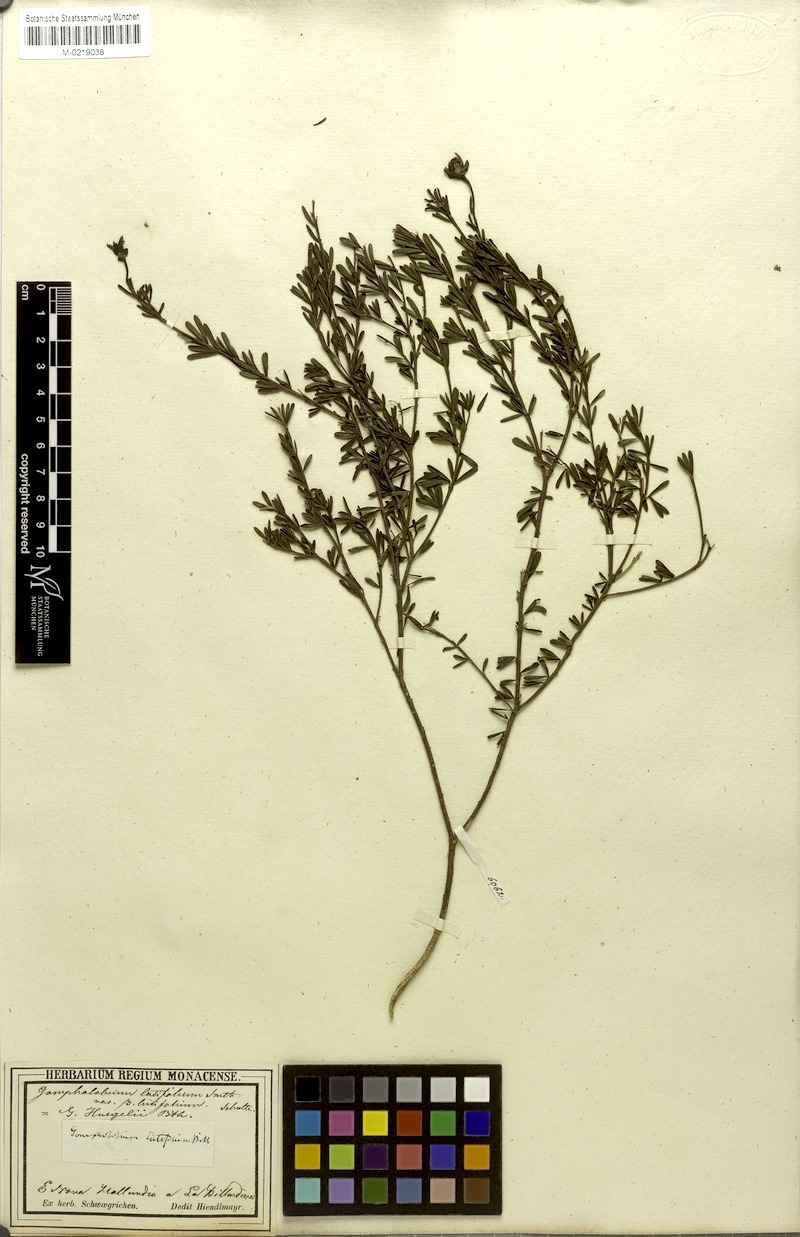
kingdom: Plantae
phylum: Tracheophyta
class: Magnoliopsida
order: Fabales
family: Fabaceae
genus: Gompholobium
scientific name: Gompholobium huegelii
